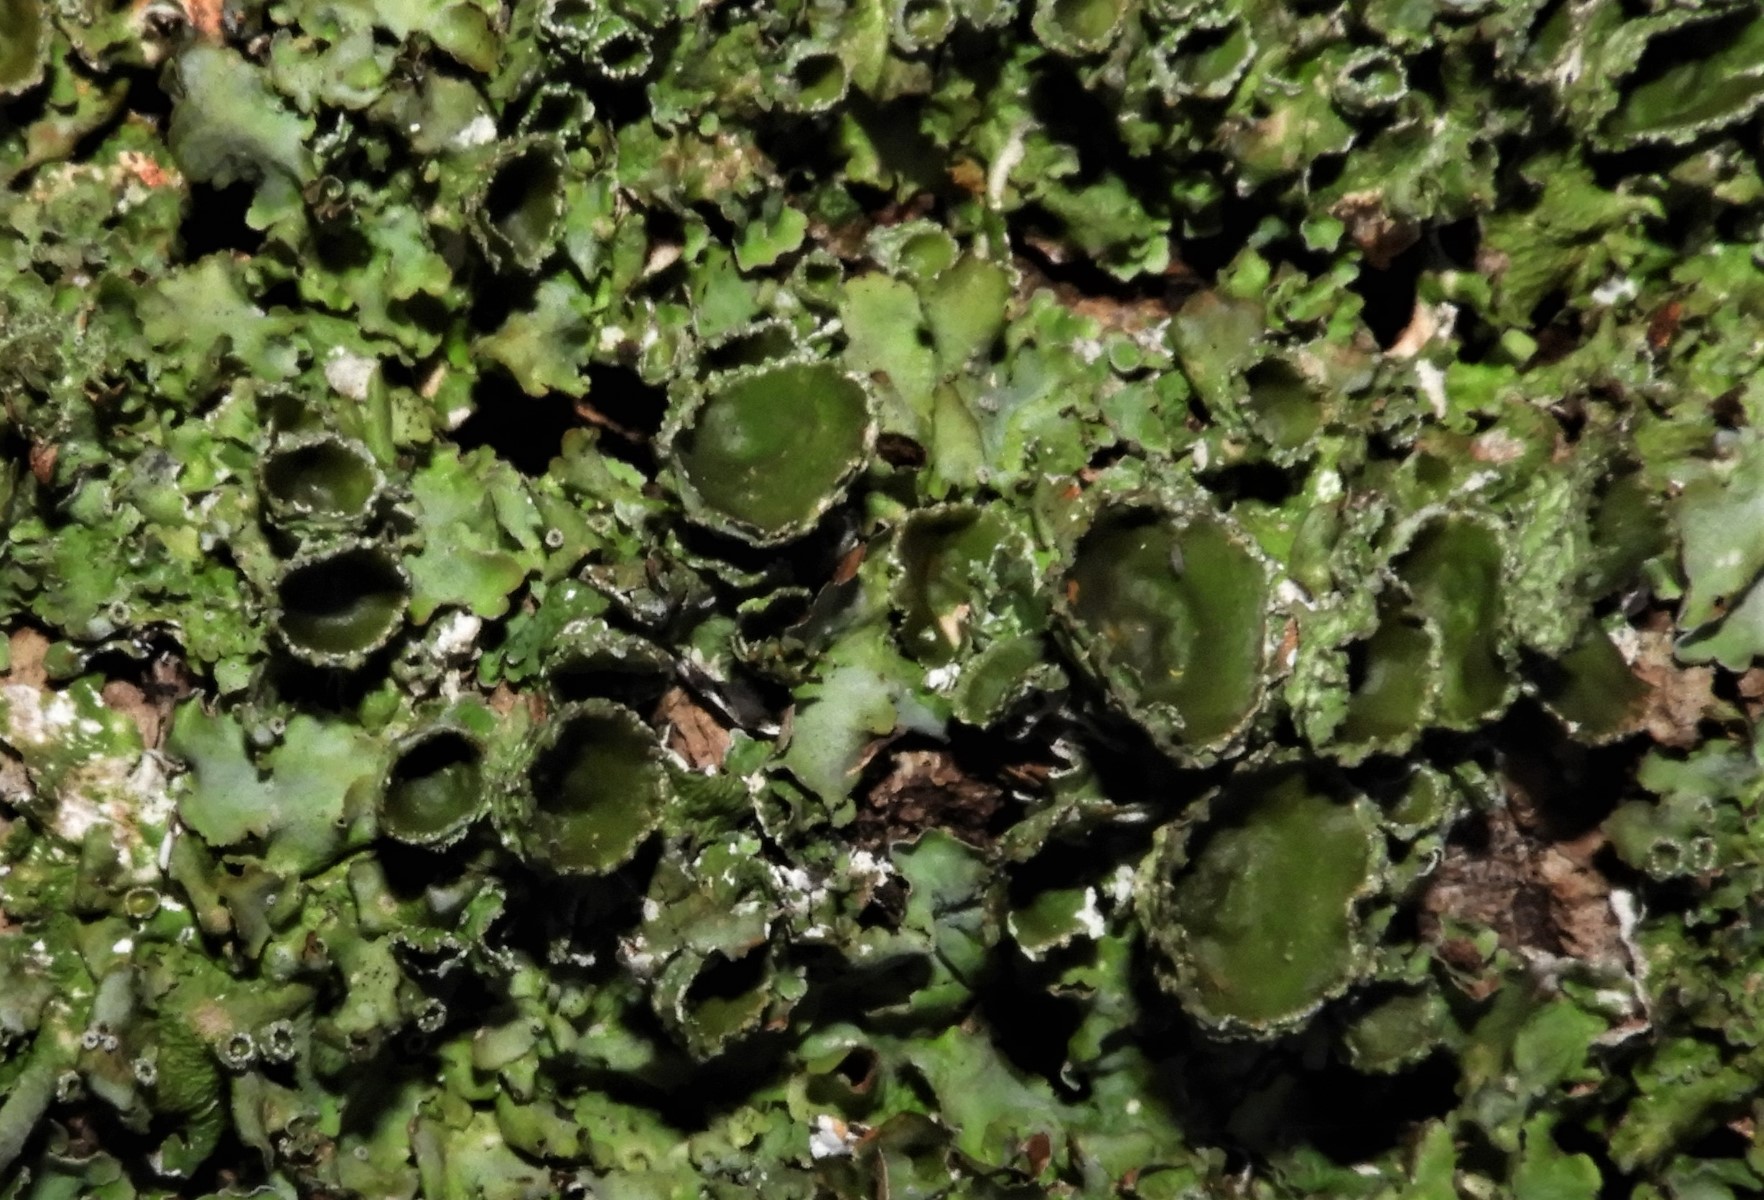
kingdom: Fungi
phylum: Ascomycota
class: Lecanoromycetes
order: Lecanorales
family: Parmeliaceae
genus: Pleurosticta
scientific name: Pleurosticta acetabulum
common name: stor skållav
